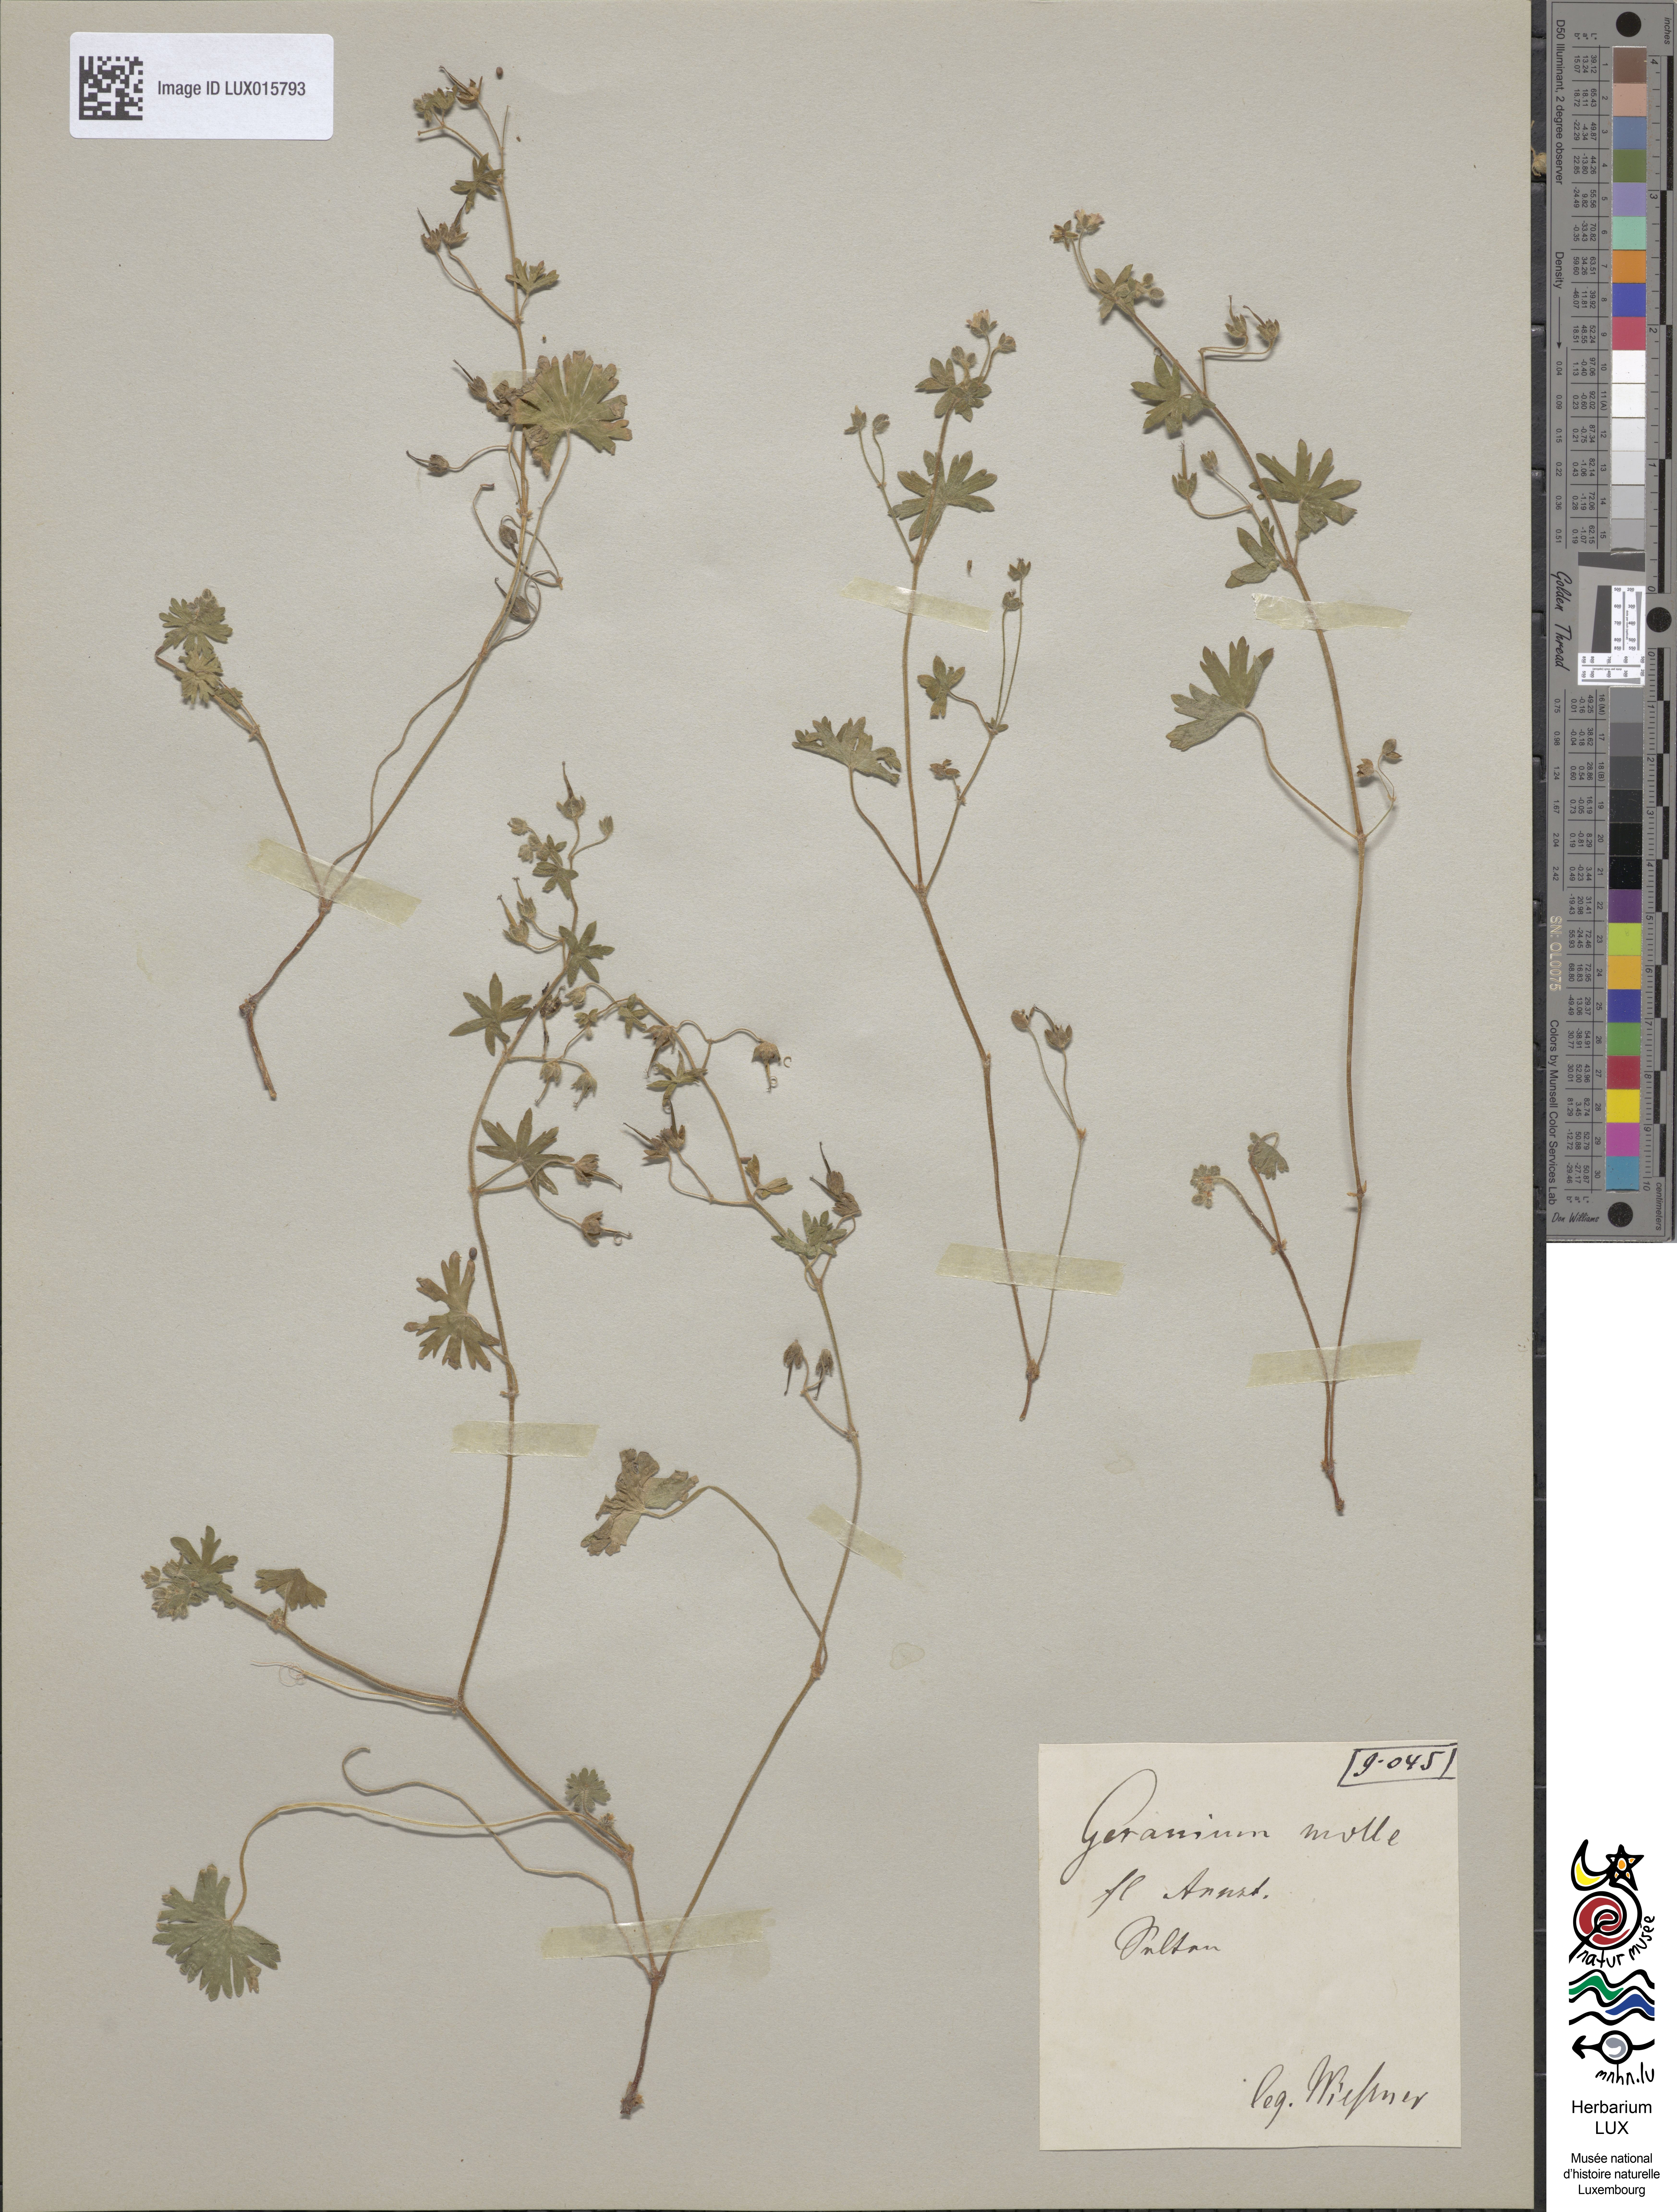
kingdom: Plantae
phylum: Tracheophyta
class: Magnoliopsida
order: Geraniales
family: Geraniaceae
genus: Geranium
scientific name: Geranium molle
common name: Dove's-foot crane's-bill
